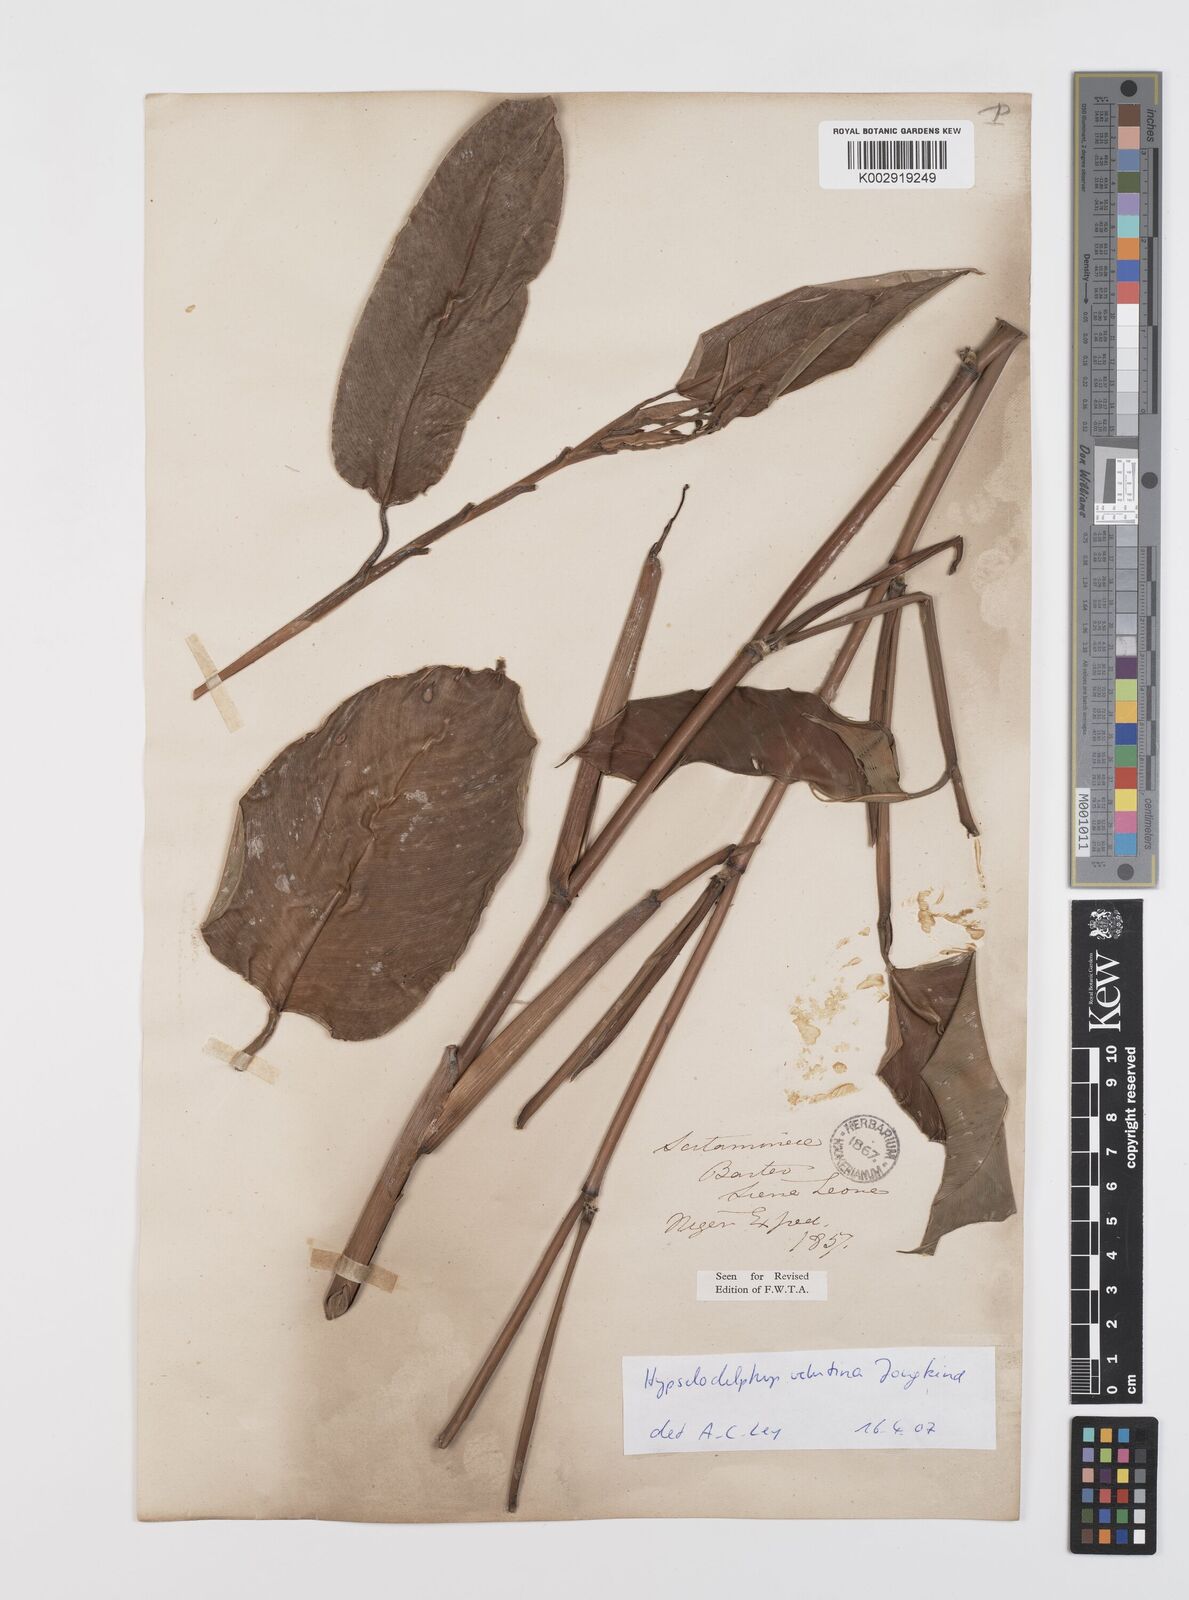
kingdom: Plantae
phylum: Tracheophyta
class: Liliopsida
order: Zingiberales
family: Marantaceae
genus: Hypselodelphys
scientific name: Hypselodelphys velutina
